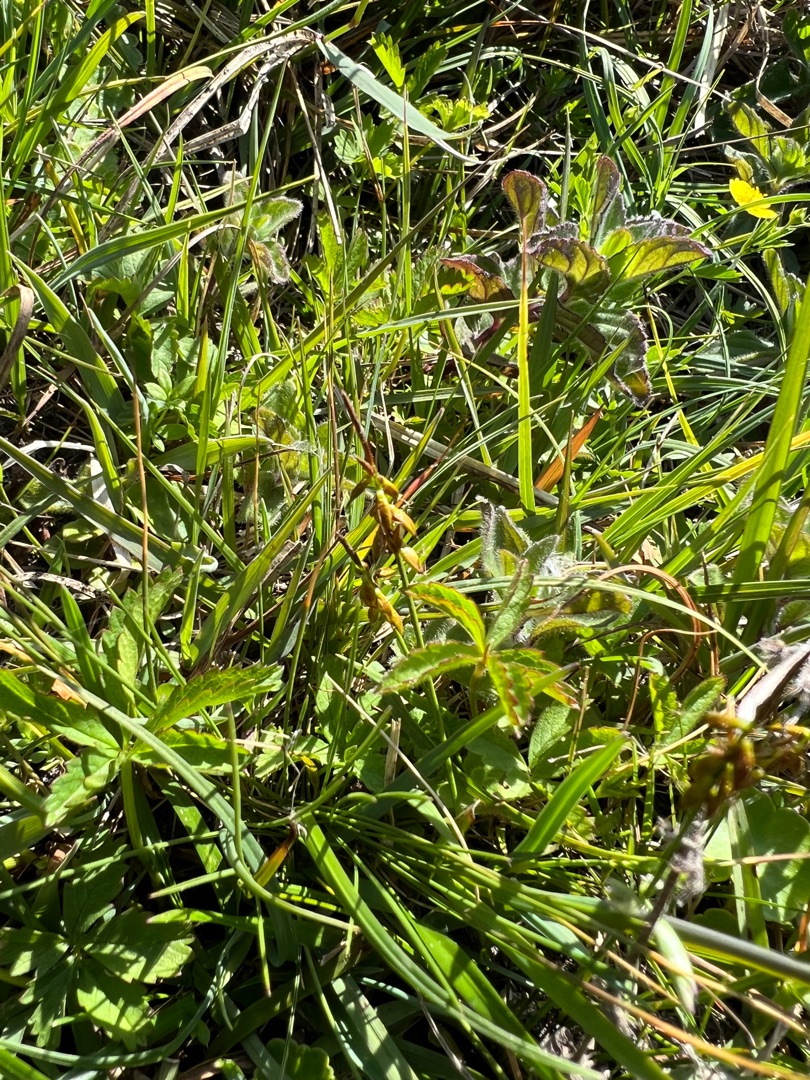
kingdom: Plantae
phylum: Tracheophyta
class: Liliopsida
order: Poales
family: Cyperaceae
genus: Carex
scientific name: Carex pulicaris
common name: Loppe-star
